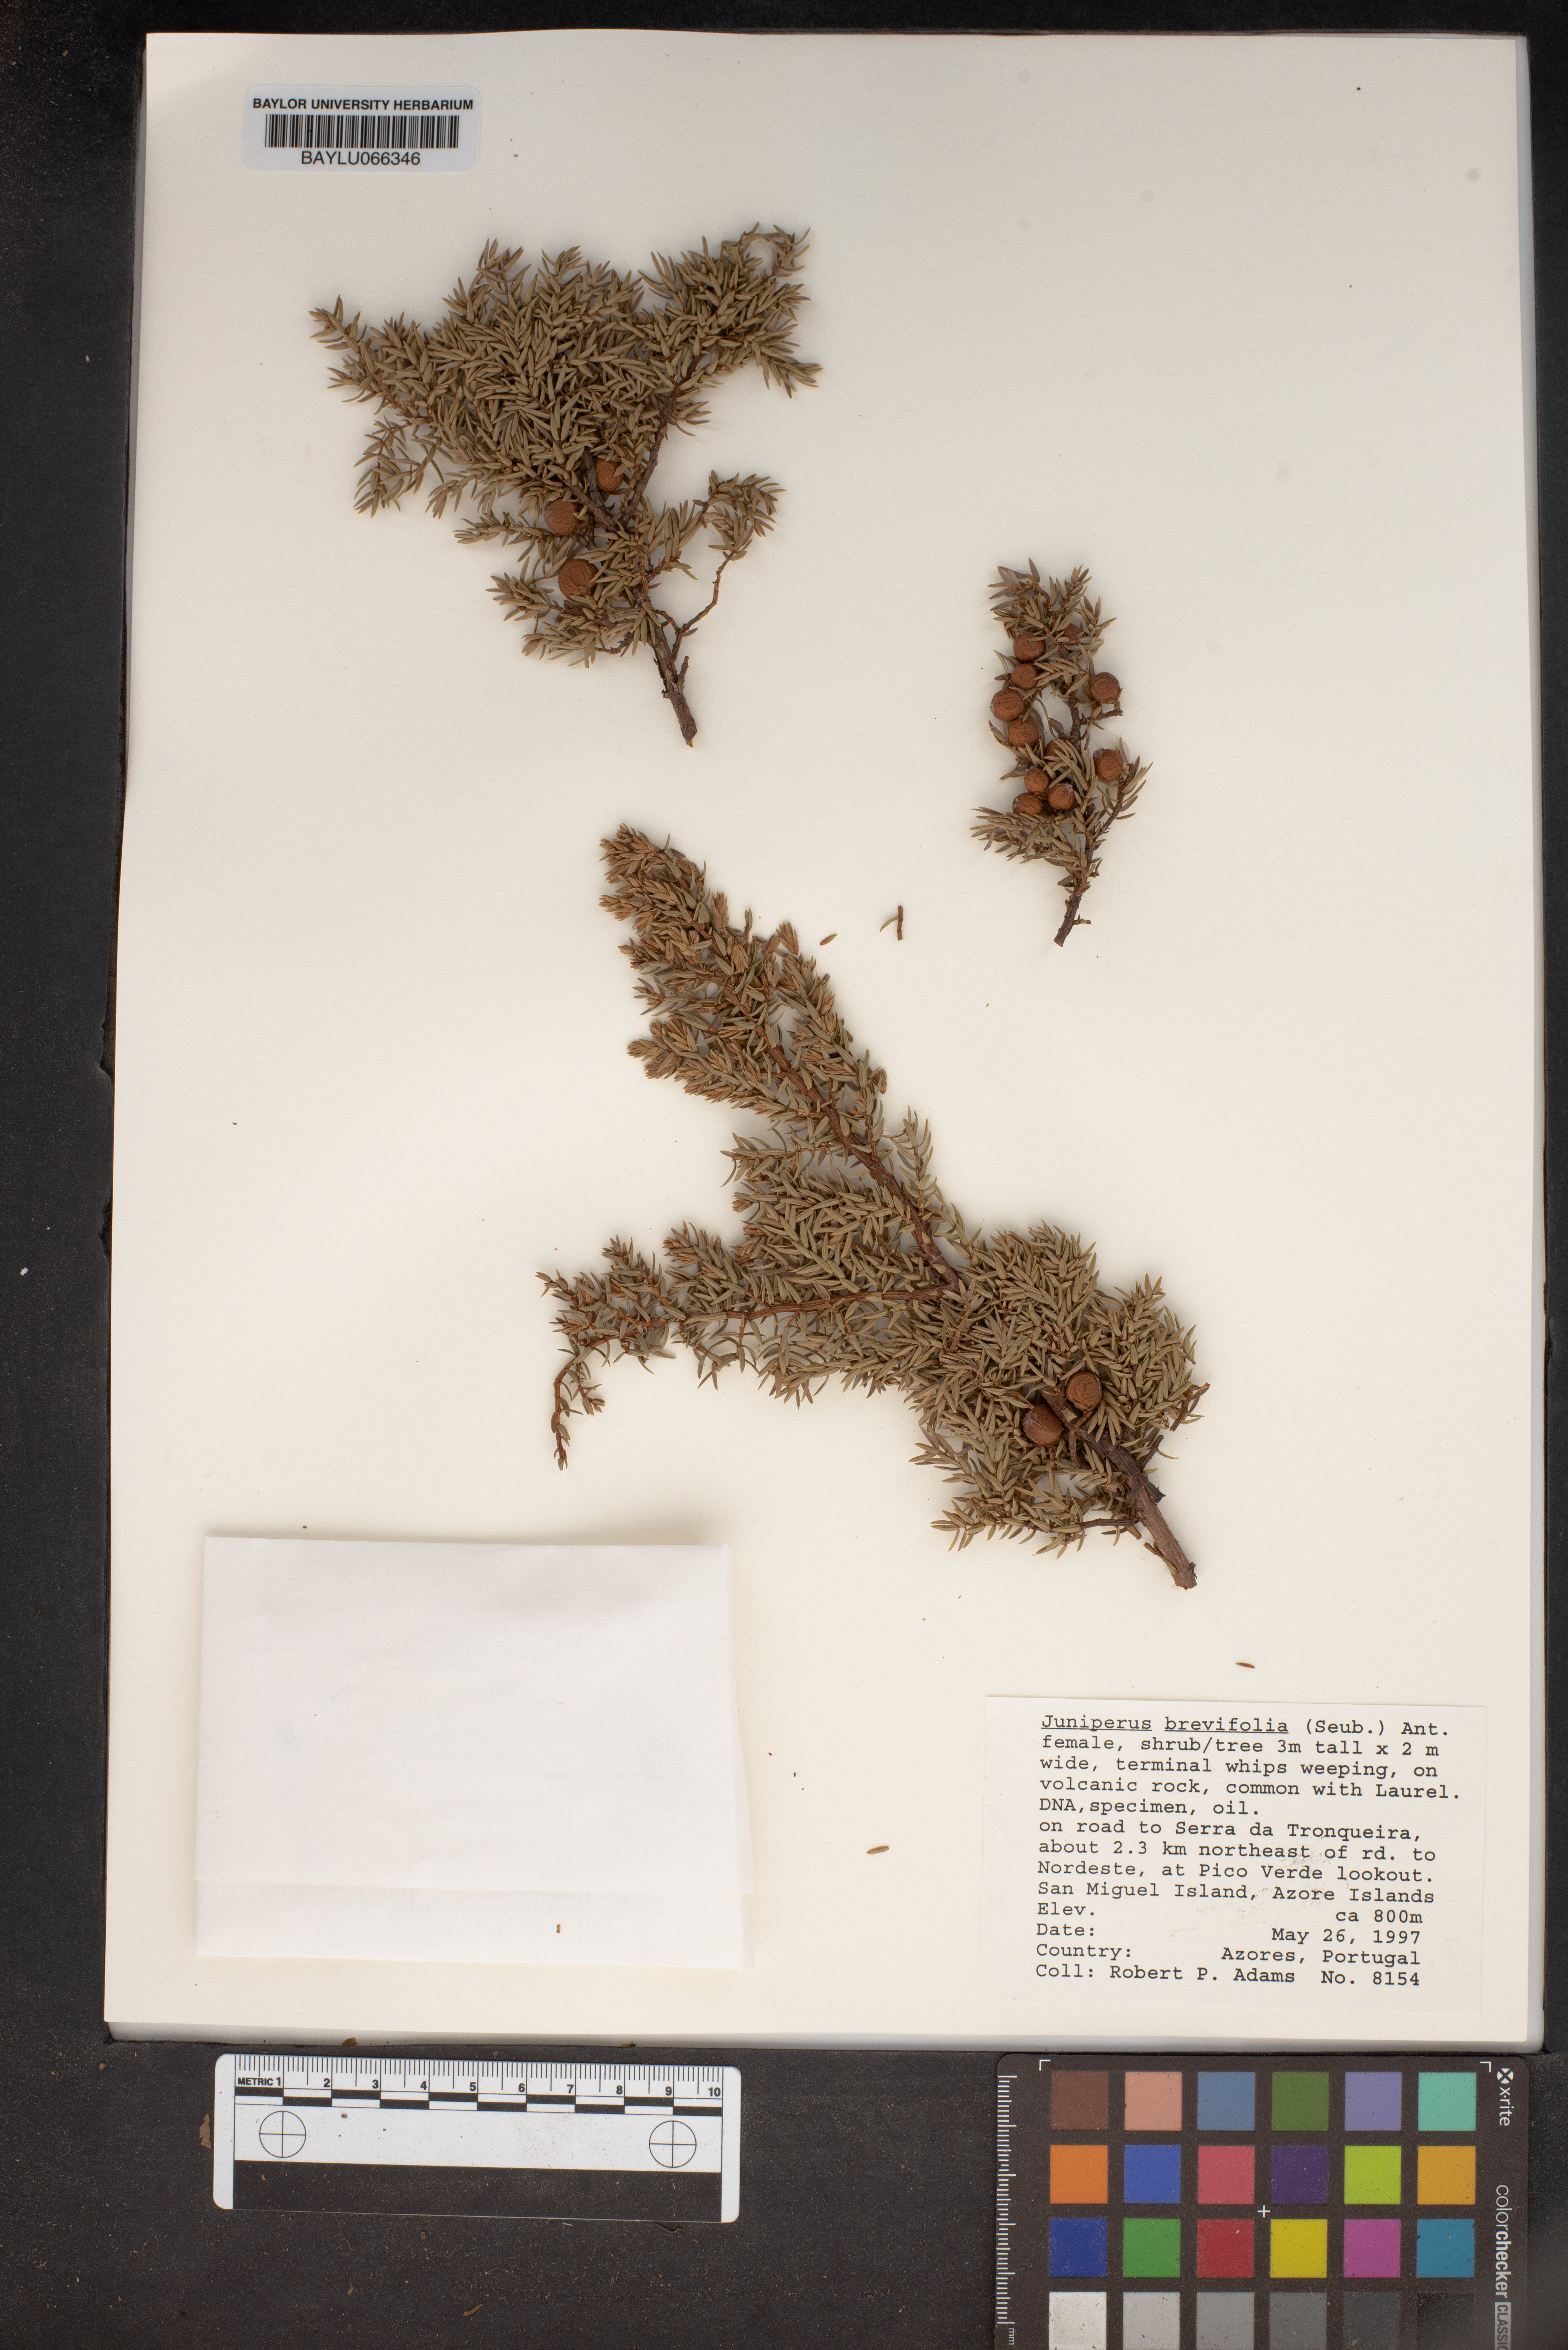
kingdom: Plantae
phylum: Tracheophyta
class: Pinopsida
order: Pinales
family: Cupressaceae
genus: Juniperus
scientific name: Juniperus brevifolia
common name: Azores juniper
